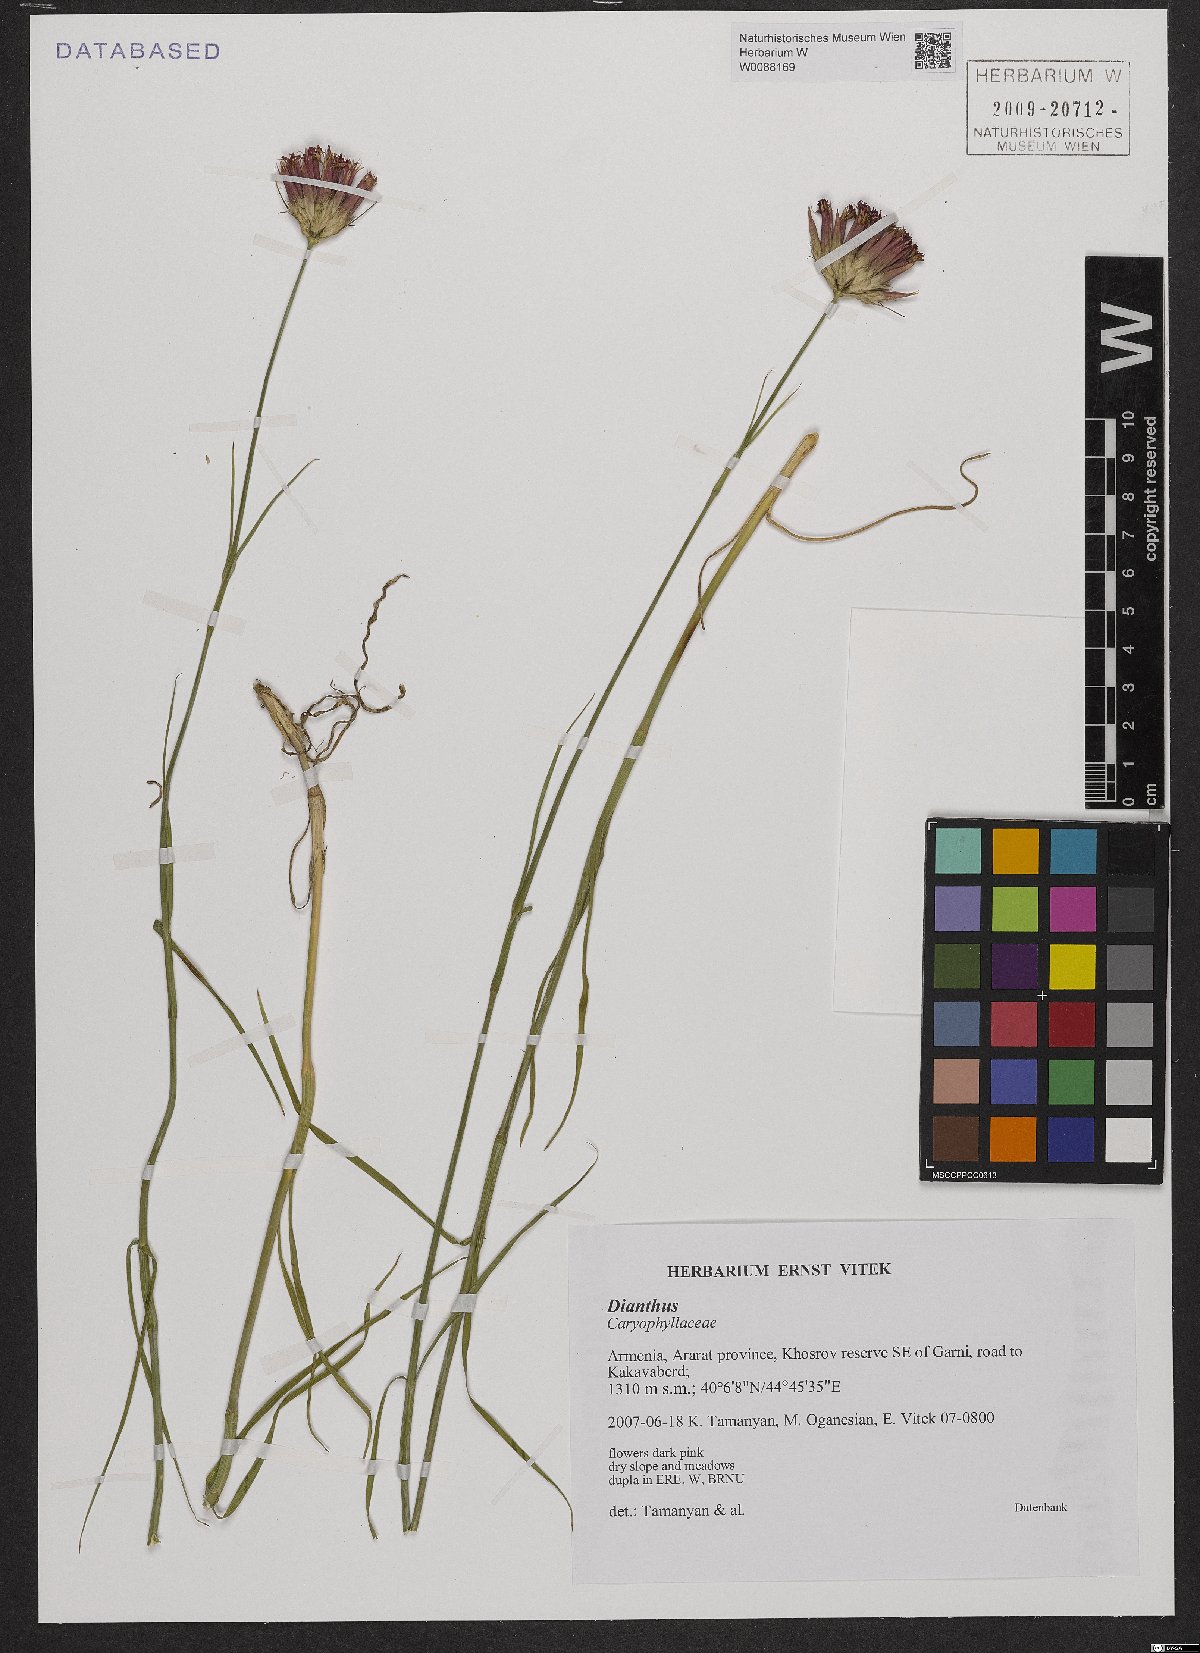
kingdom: Plantae
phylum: Tracheophyta
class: Magnoliopsida
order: Caryophyllales
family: Caryophyllaceae
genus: Dianthus
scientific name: Dianthus
